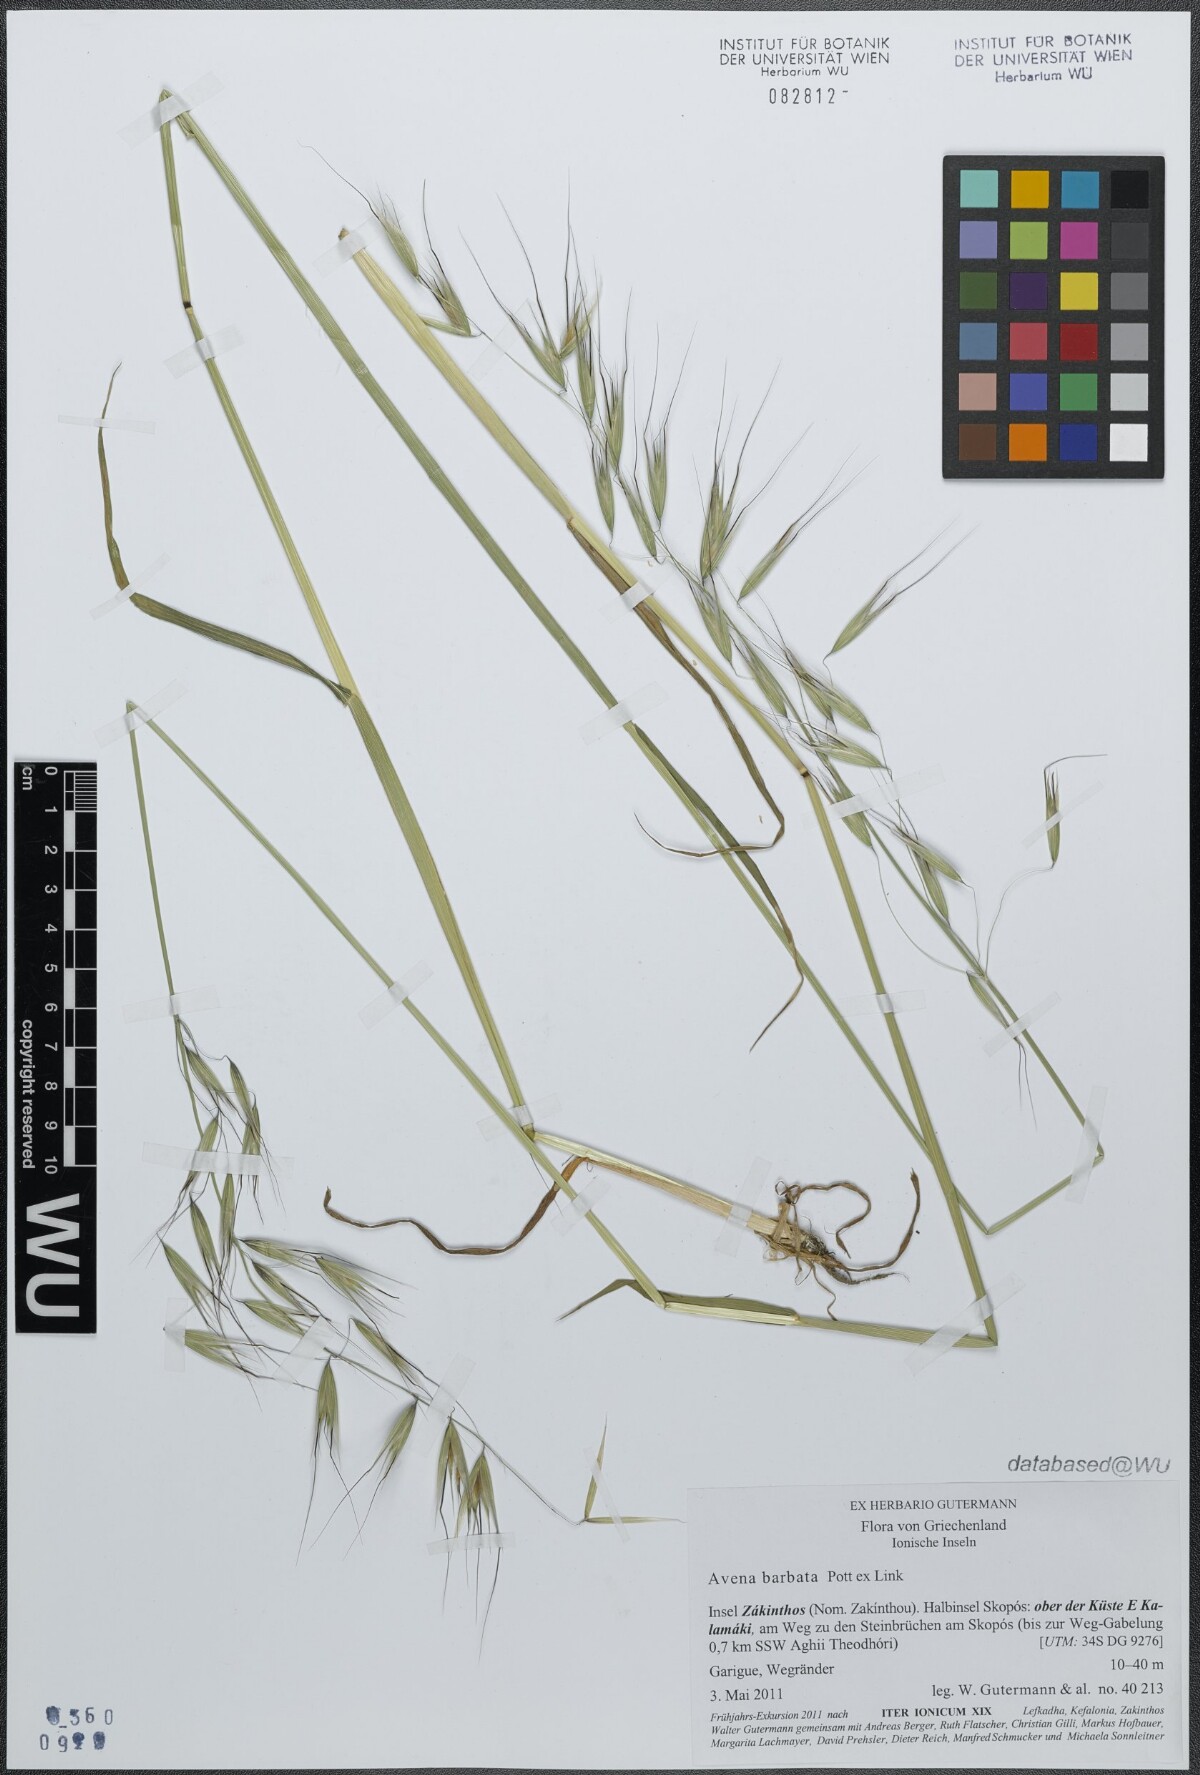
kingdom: Plantae
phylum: Tracheophyta
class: Liliopsida
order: Poales
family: Poaceae
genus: Avena
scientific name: Avena barbata
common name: Slender oat
